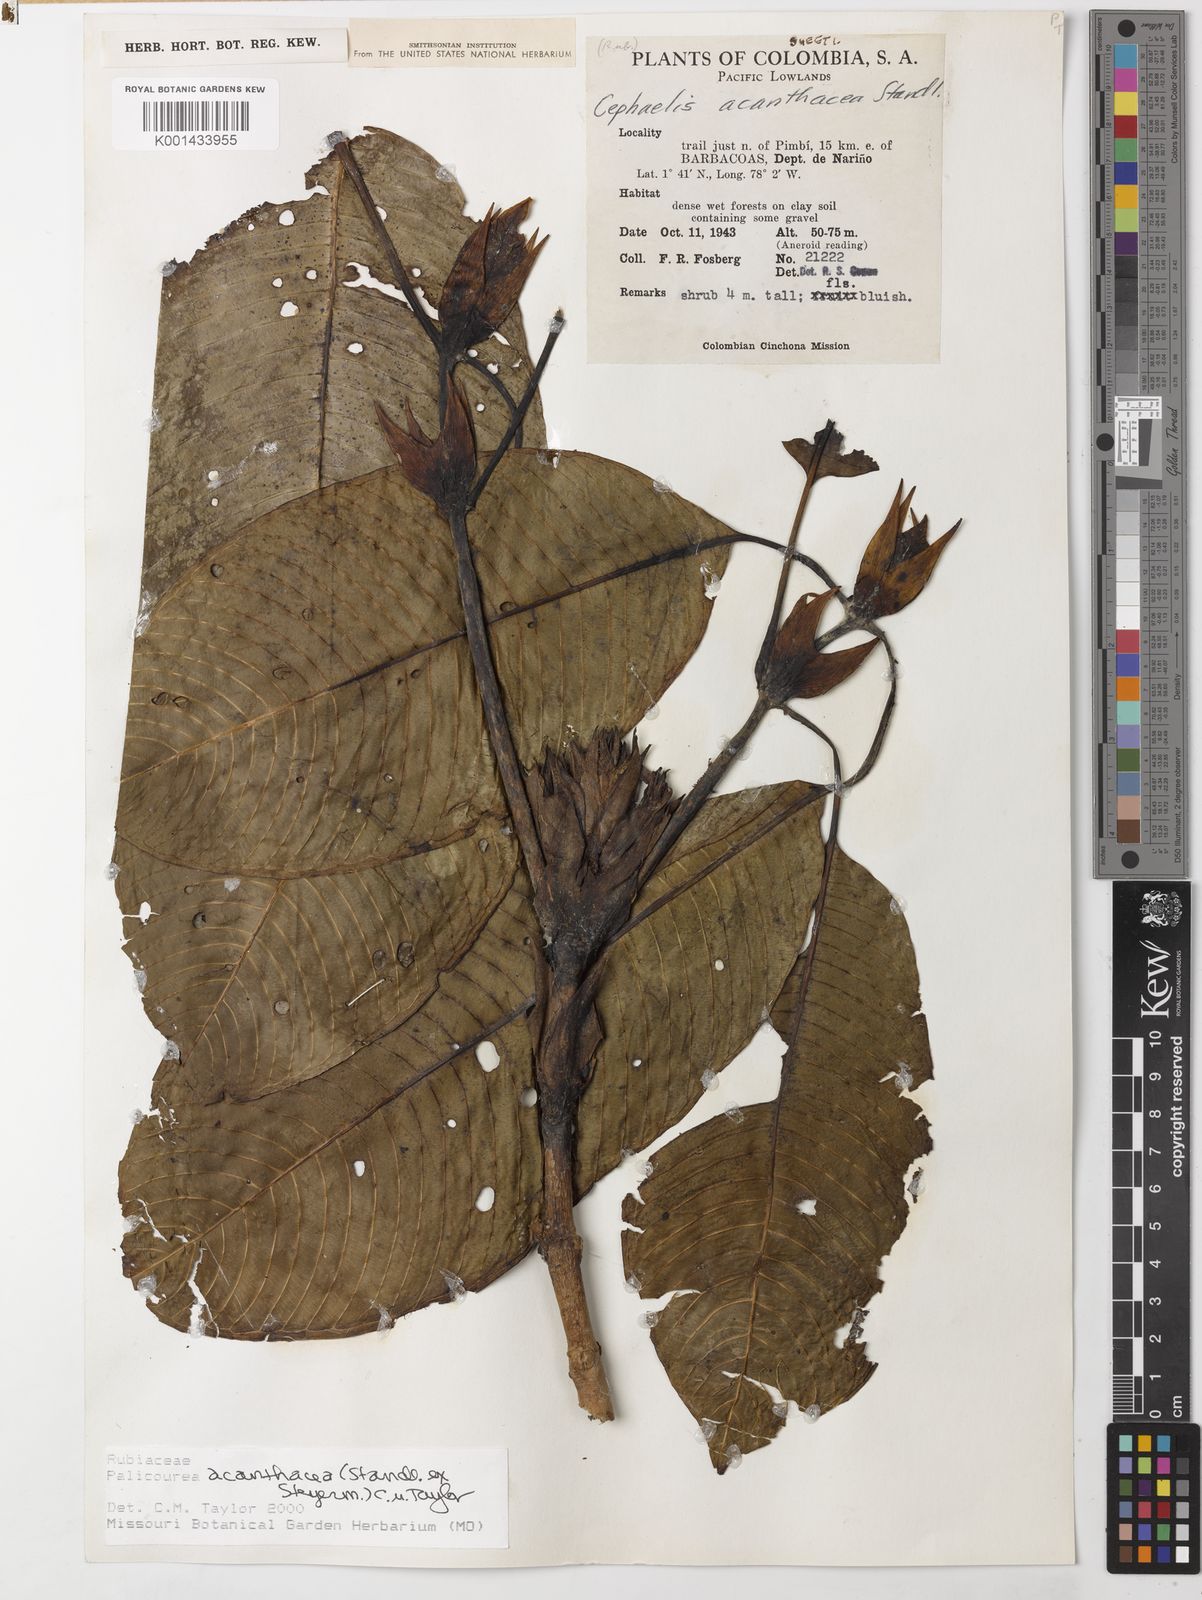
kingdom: Plantae
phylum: Tracheophyta
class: Magnoliopsida
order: Gentianales
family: Rubiaceae
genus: Palicourea
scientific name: Palicourea acanthacea
